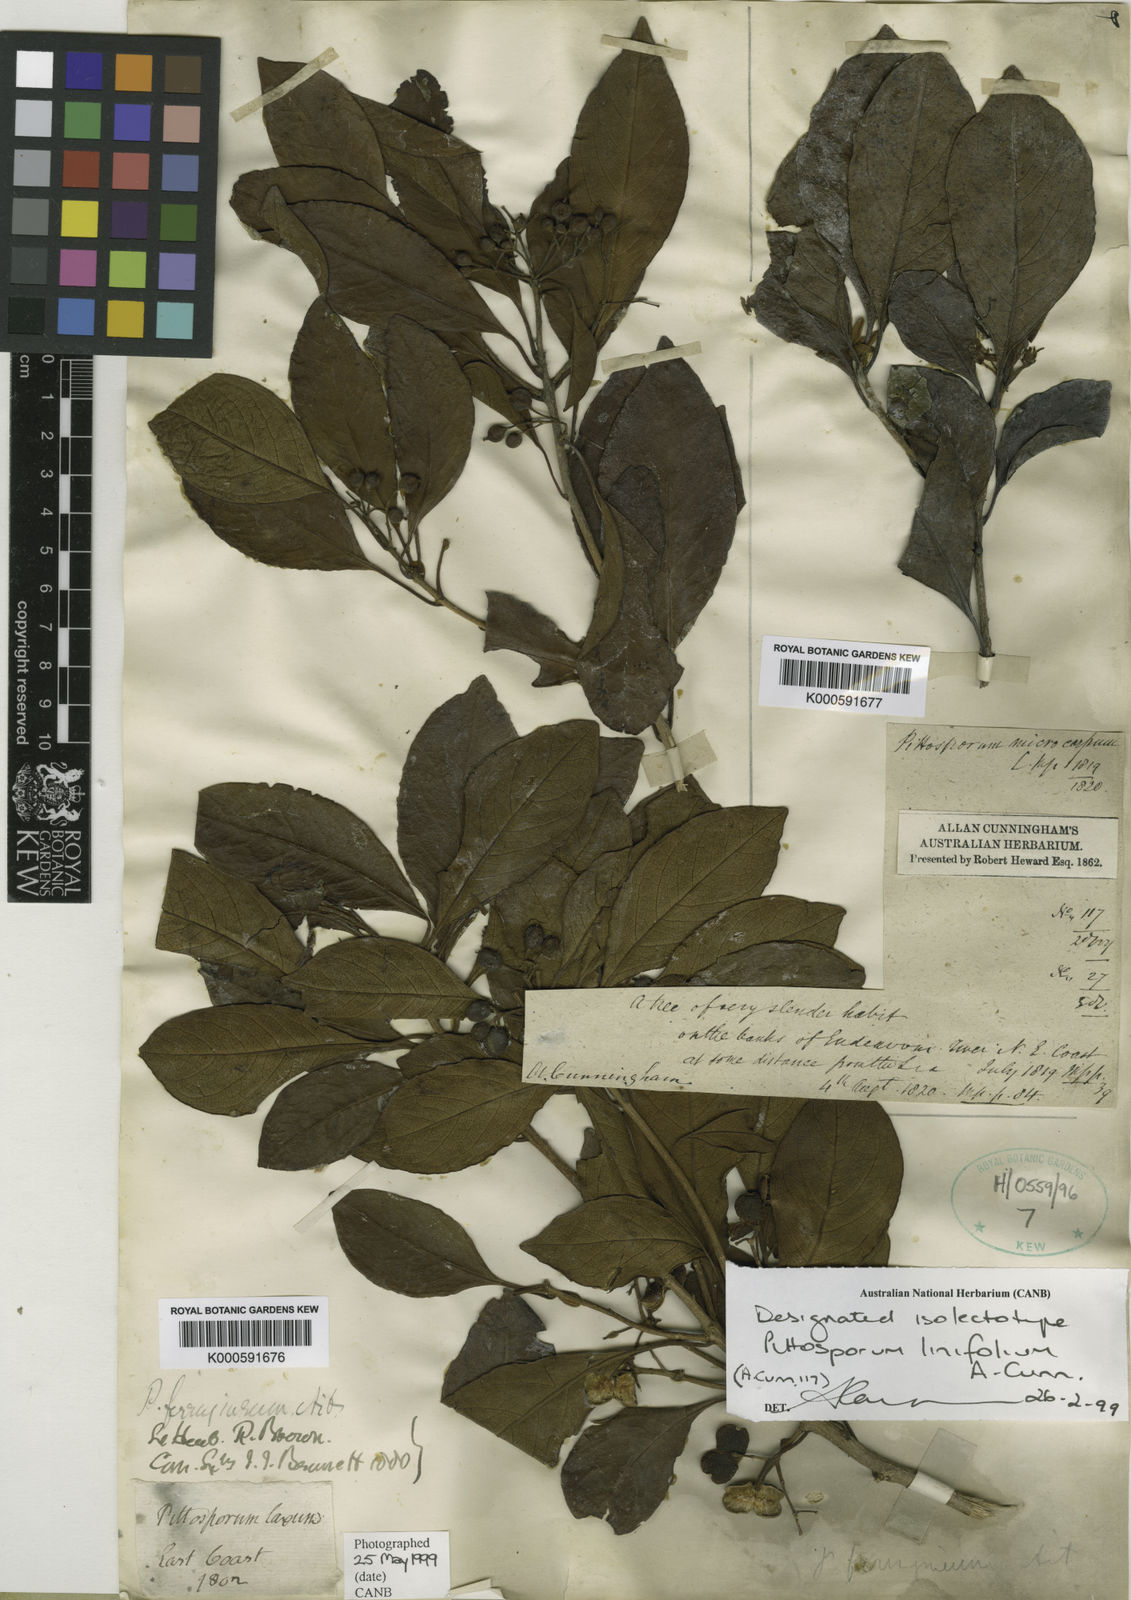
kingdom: Plantae
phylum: Tracheophyta
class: Magnoliopsida
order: Apiales
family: Pittosporaceae
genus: Pittosporum
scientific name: Pittosporum ferrugineum
